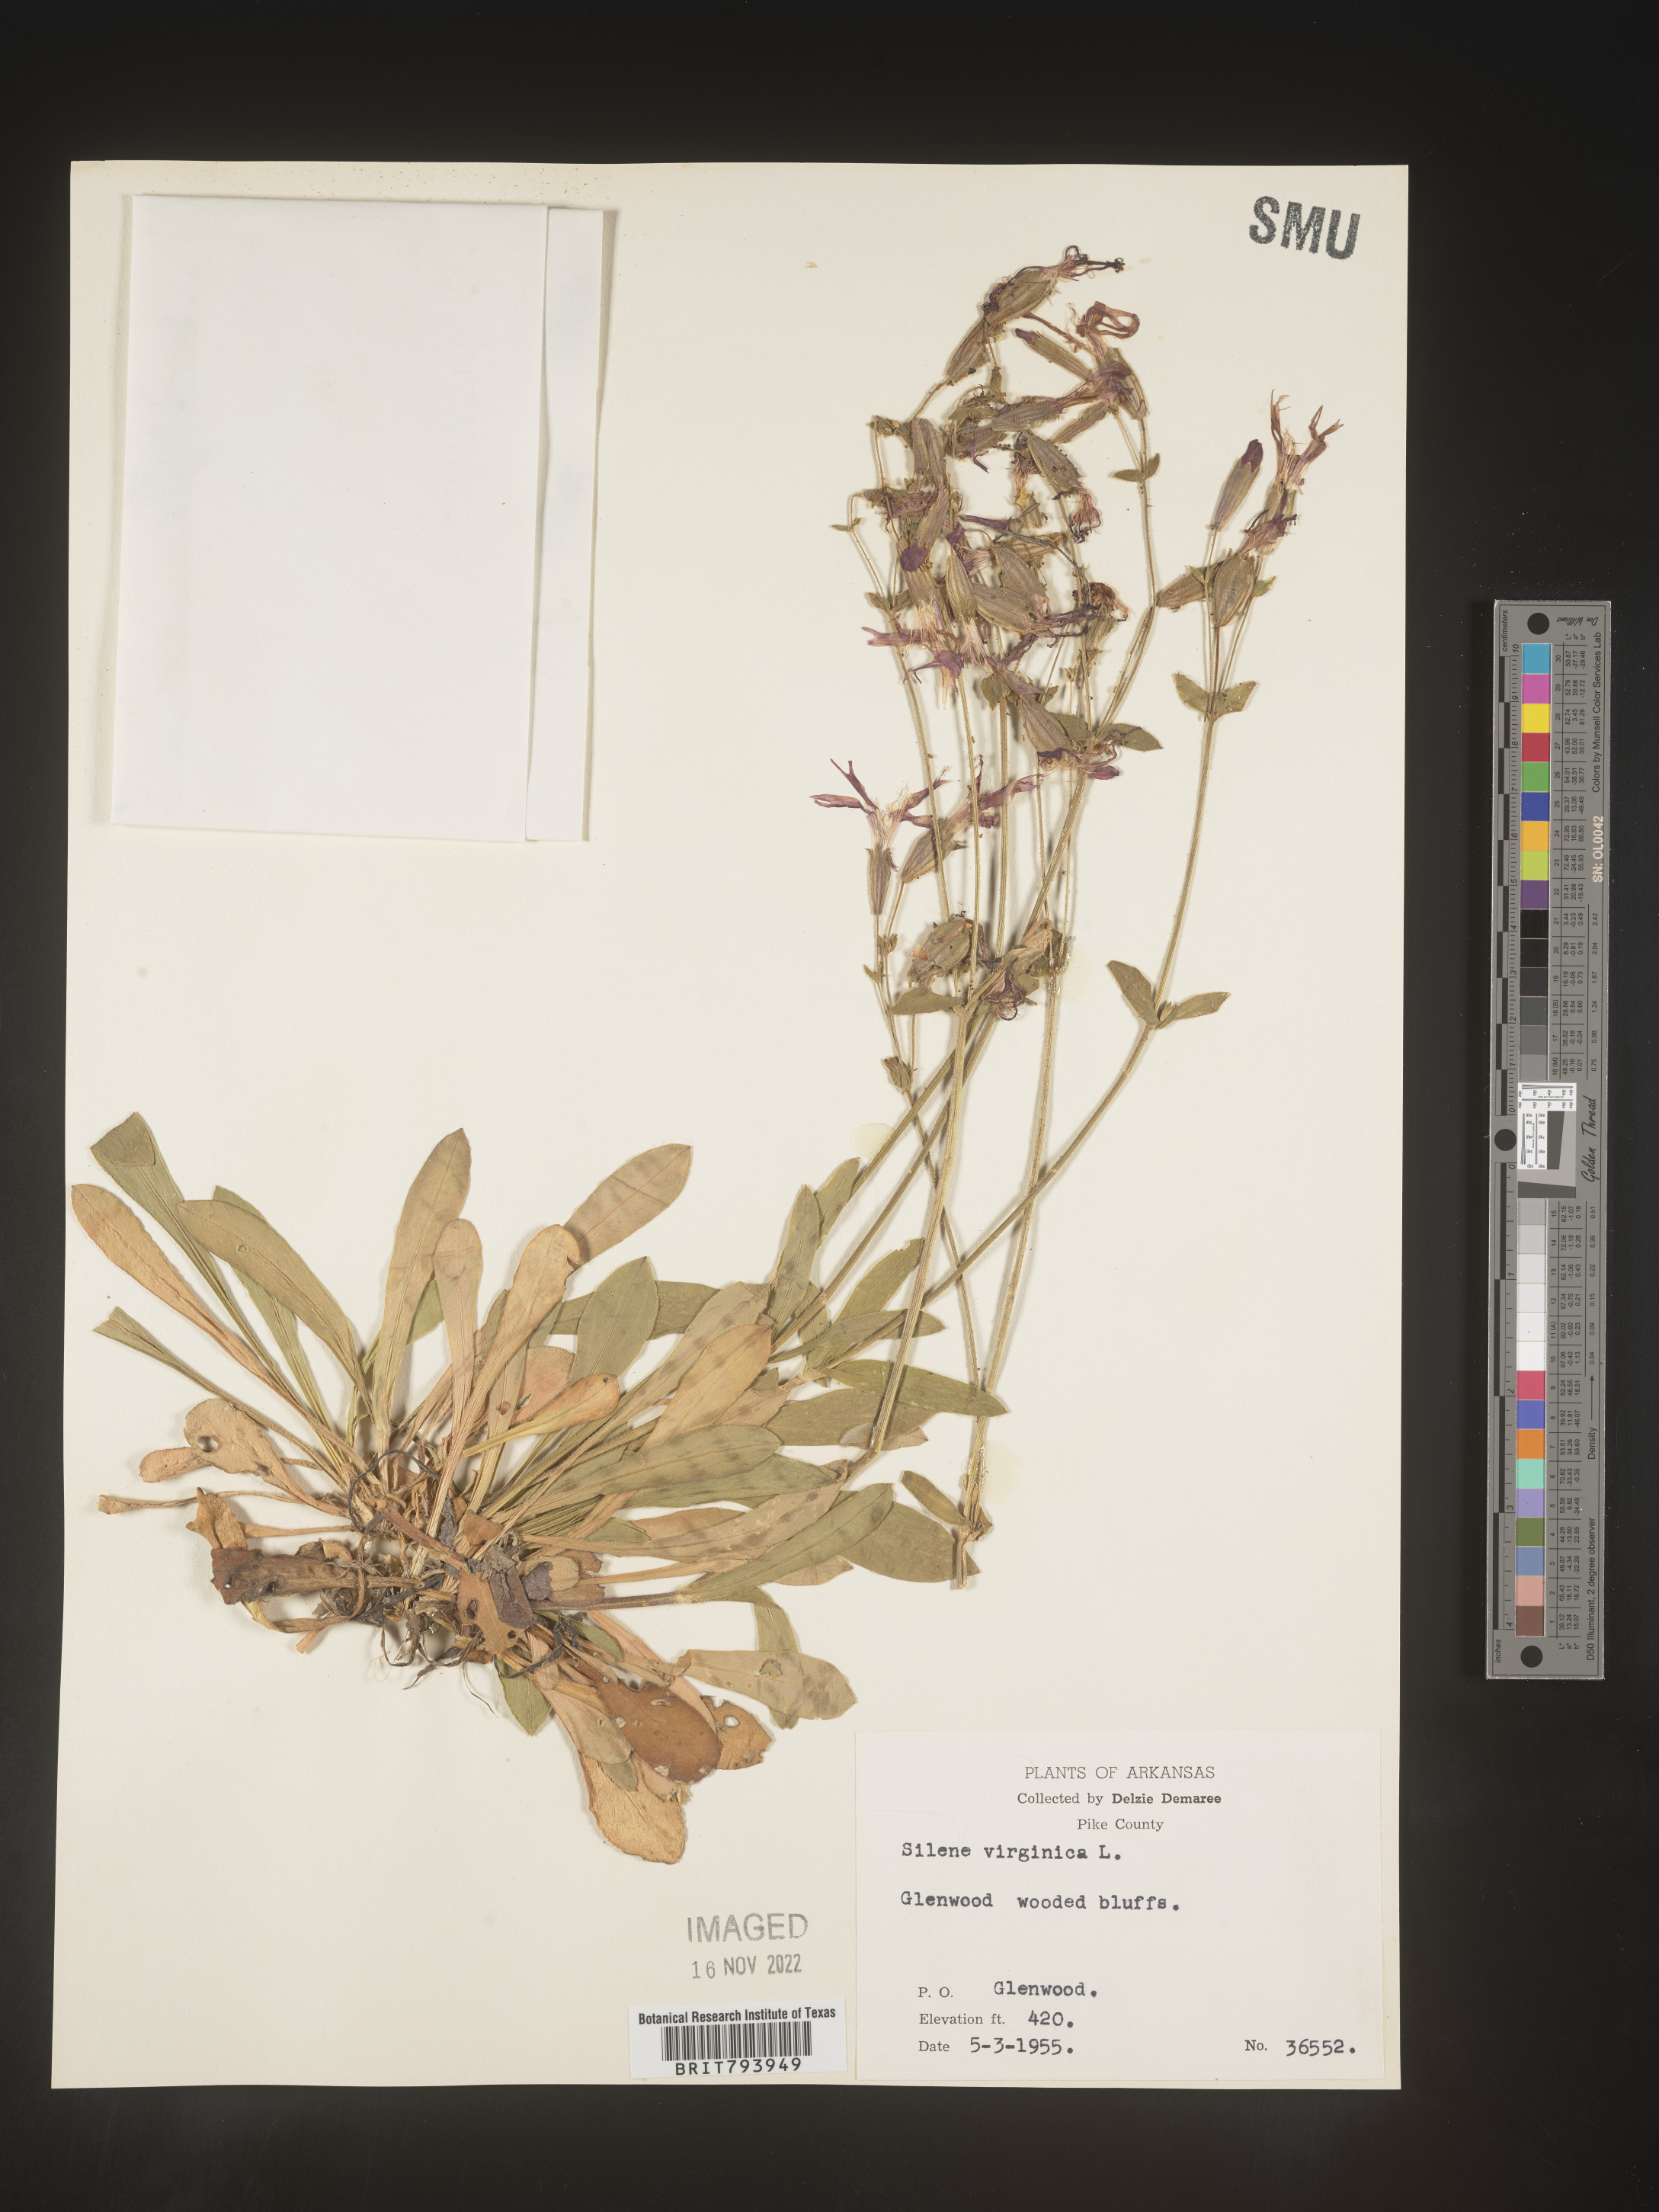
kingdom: Plantae
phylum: Tracheophyta
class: Magnoliopsida
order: Caryophyllales
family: Caryophyllaceae
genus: Silene
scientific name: Silene virginica
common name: Fire-pink
